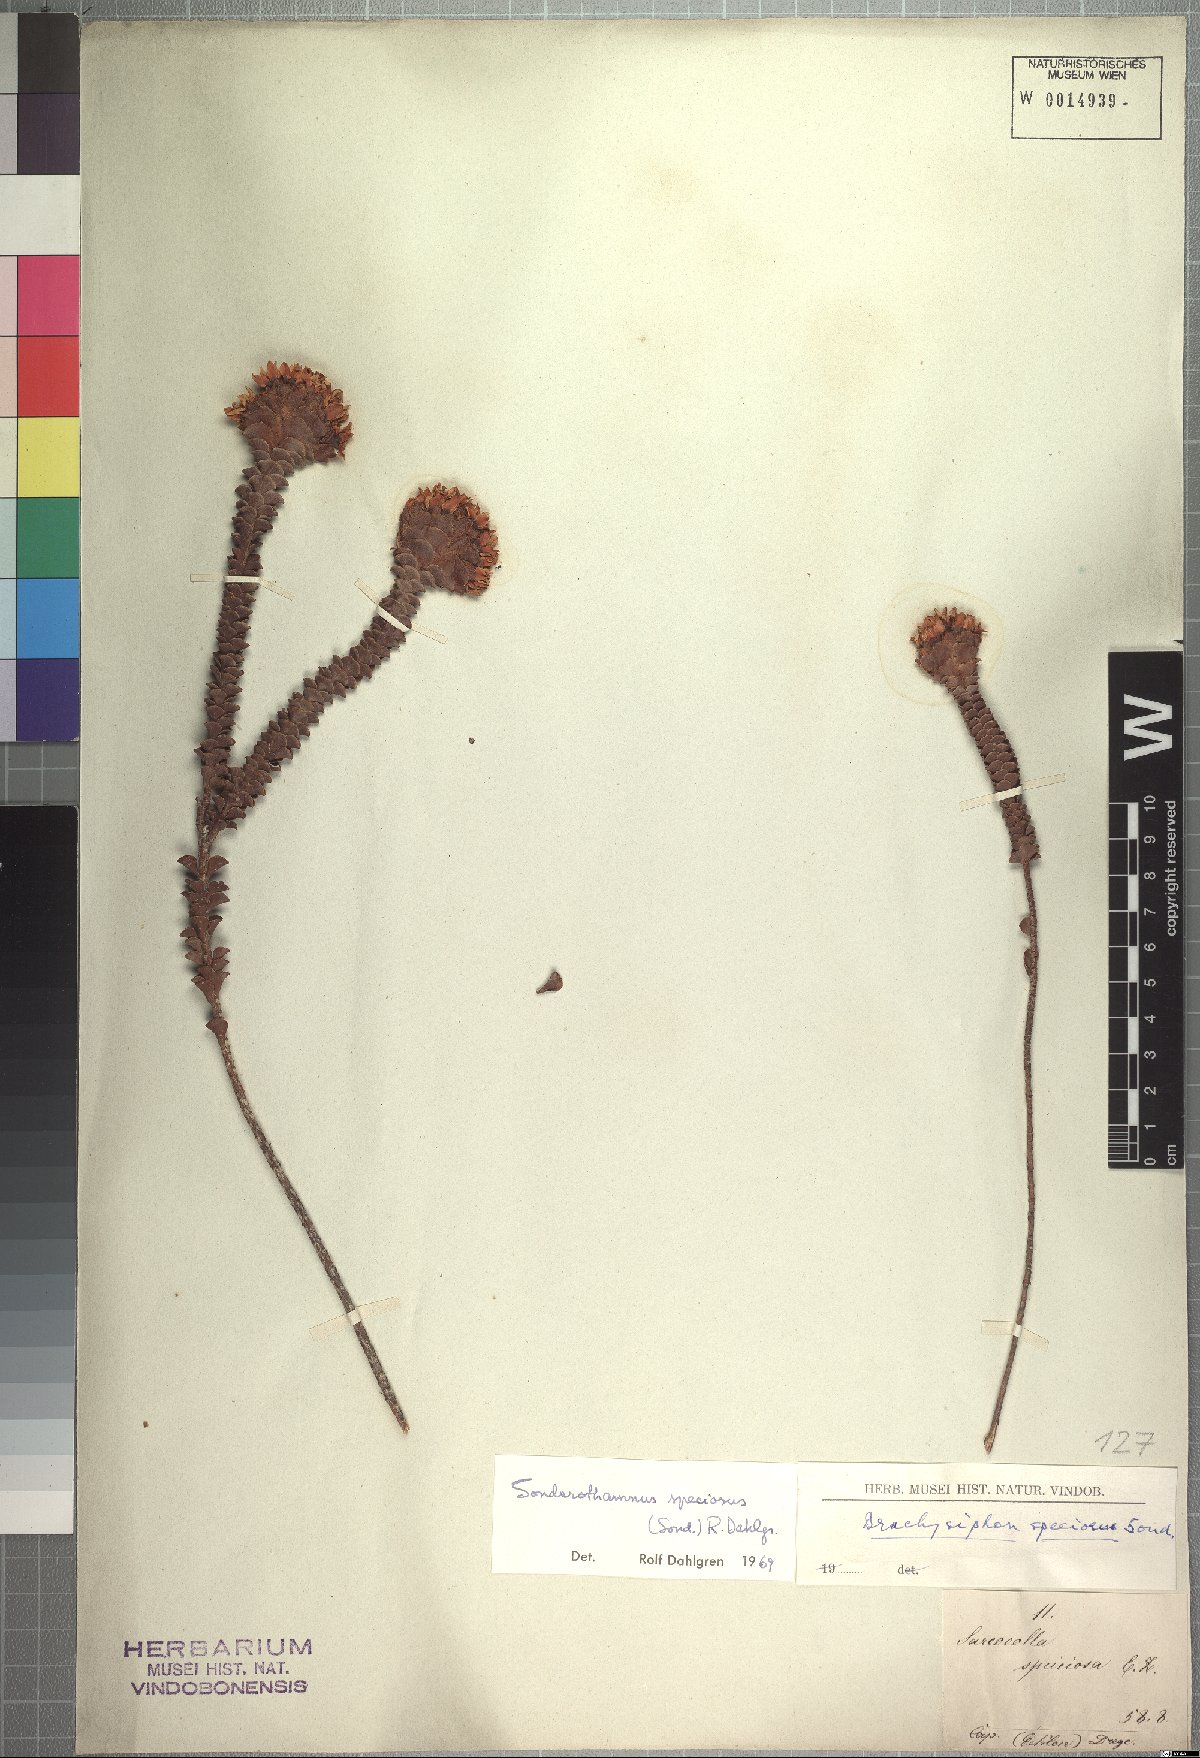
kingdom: Plantae
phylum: Tracheophyta
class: Magnoliopsida
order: Myrtales
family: Penaeaceae
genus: Sonderothamnus
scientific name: Sonderothamnus speciosus
